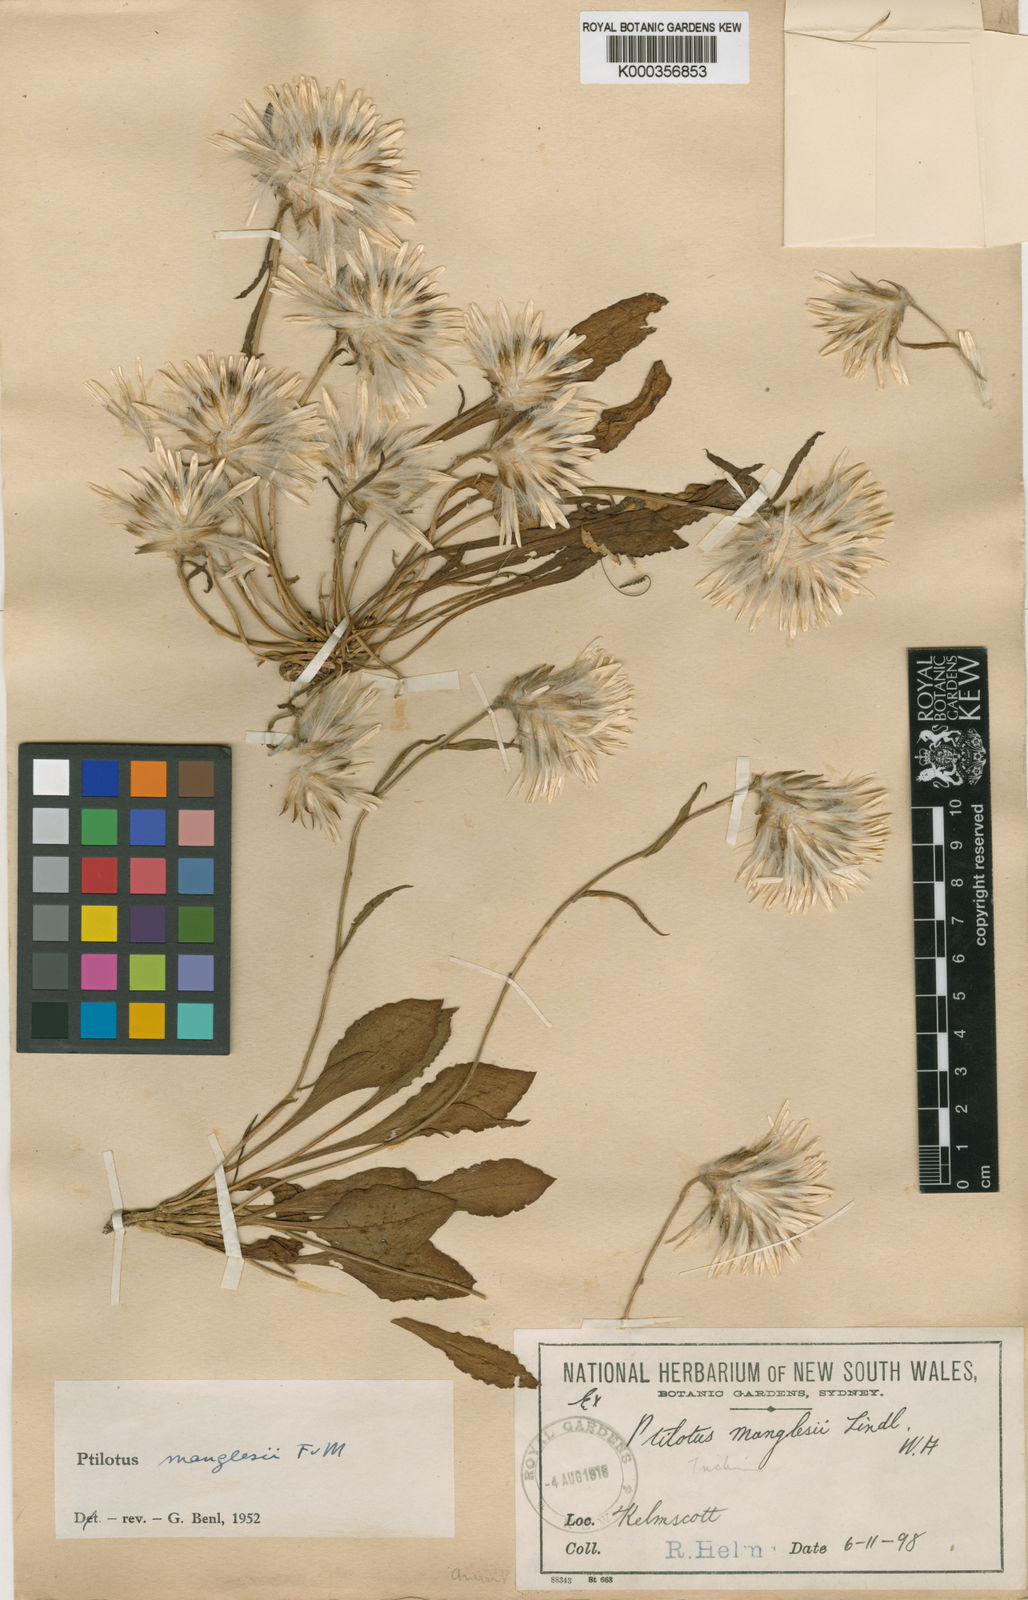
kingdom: Plantae
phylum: Tracheophyta
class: Magnoliopsida
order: Caryophyllales
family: Amaranthaceae
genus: Ptilotus
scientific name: Ptilotus manglesii
